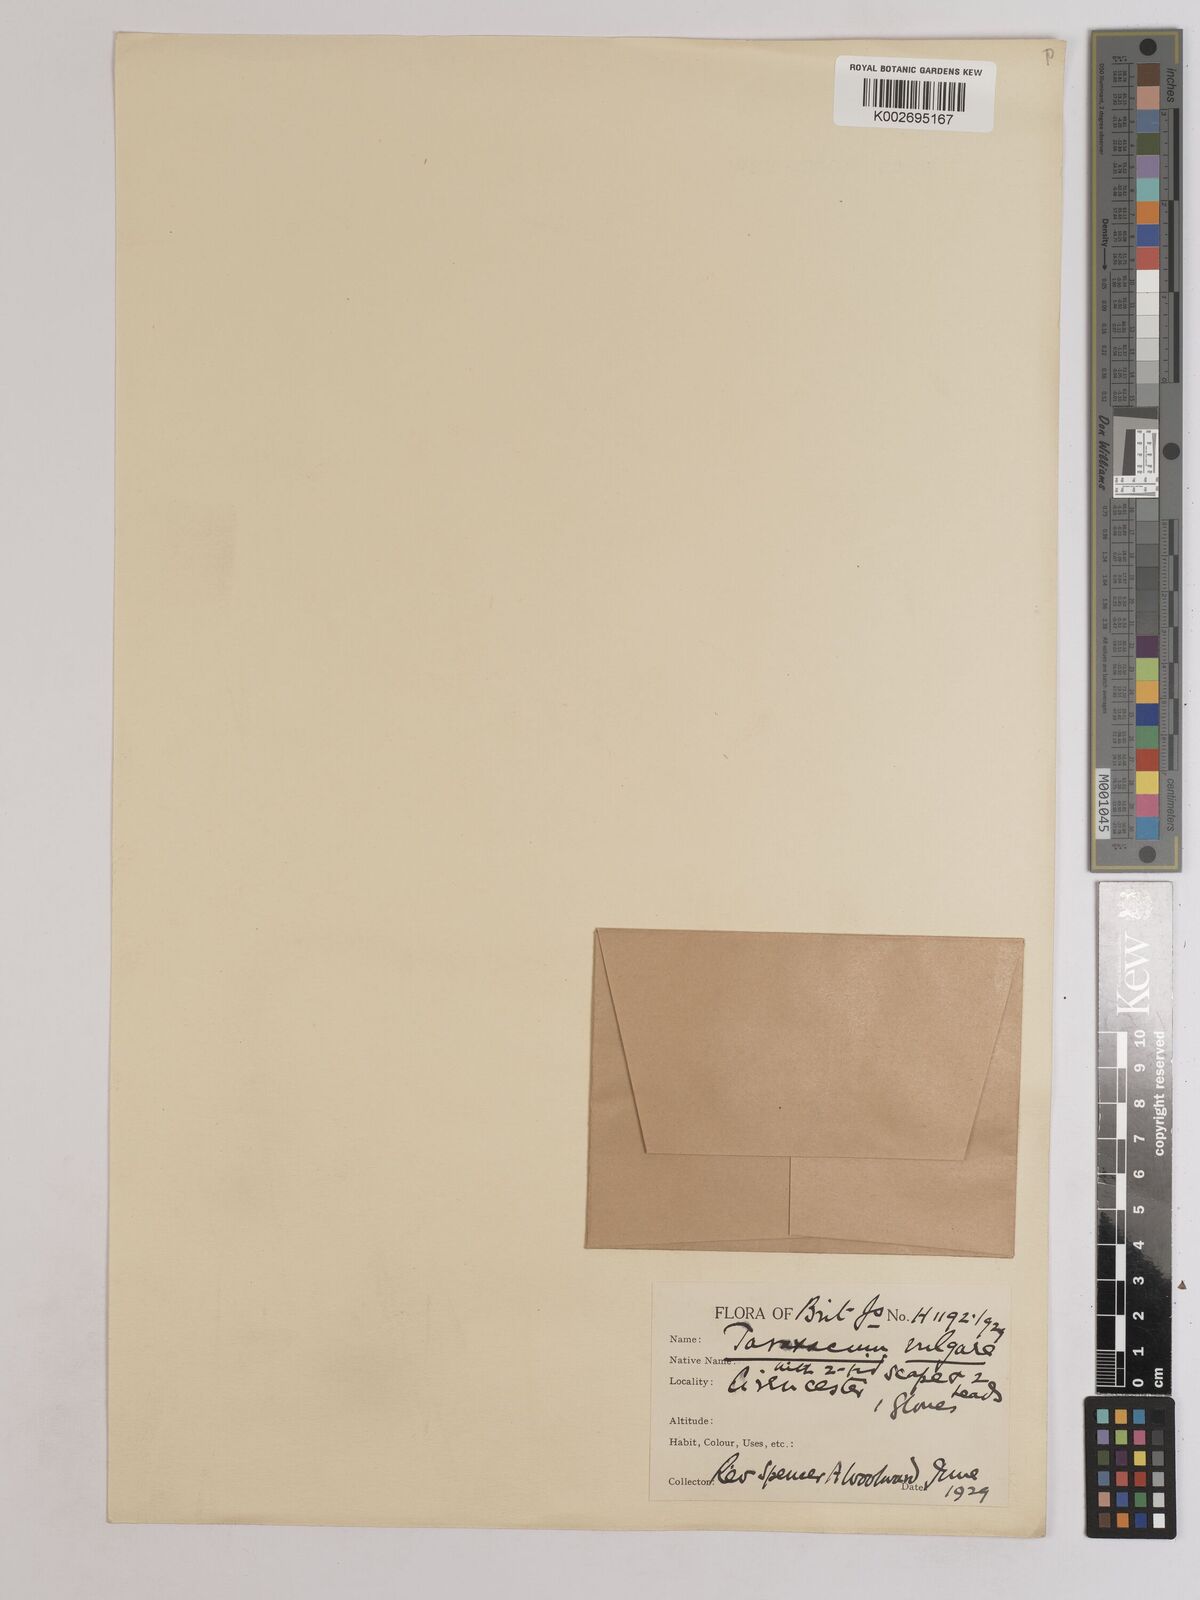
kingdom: Plantae
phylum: Tracheophyta
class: Magnoliopsida
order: Asterales
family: Asteraceae
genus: Taraxacum
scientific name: Taraxacum officinale
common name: Common dandelion
